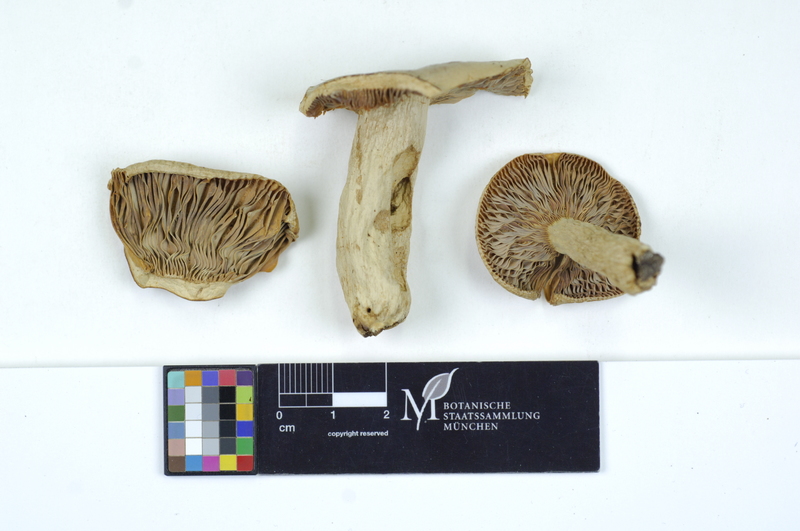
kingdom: Fungi
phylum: Basidiomycota
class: Agaricomycetes
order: Russulales
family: Russulaceae
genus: Russula
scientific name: Russula parazurea
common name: Powdery brittlegill
